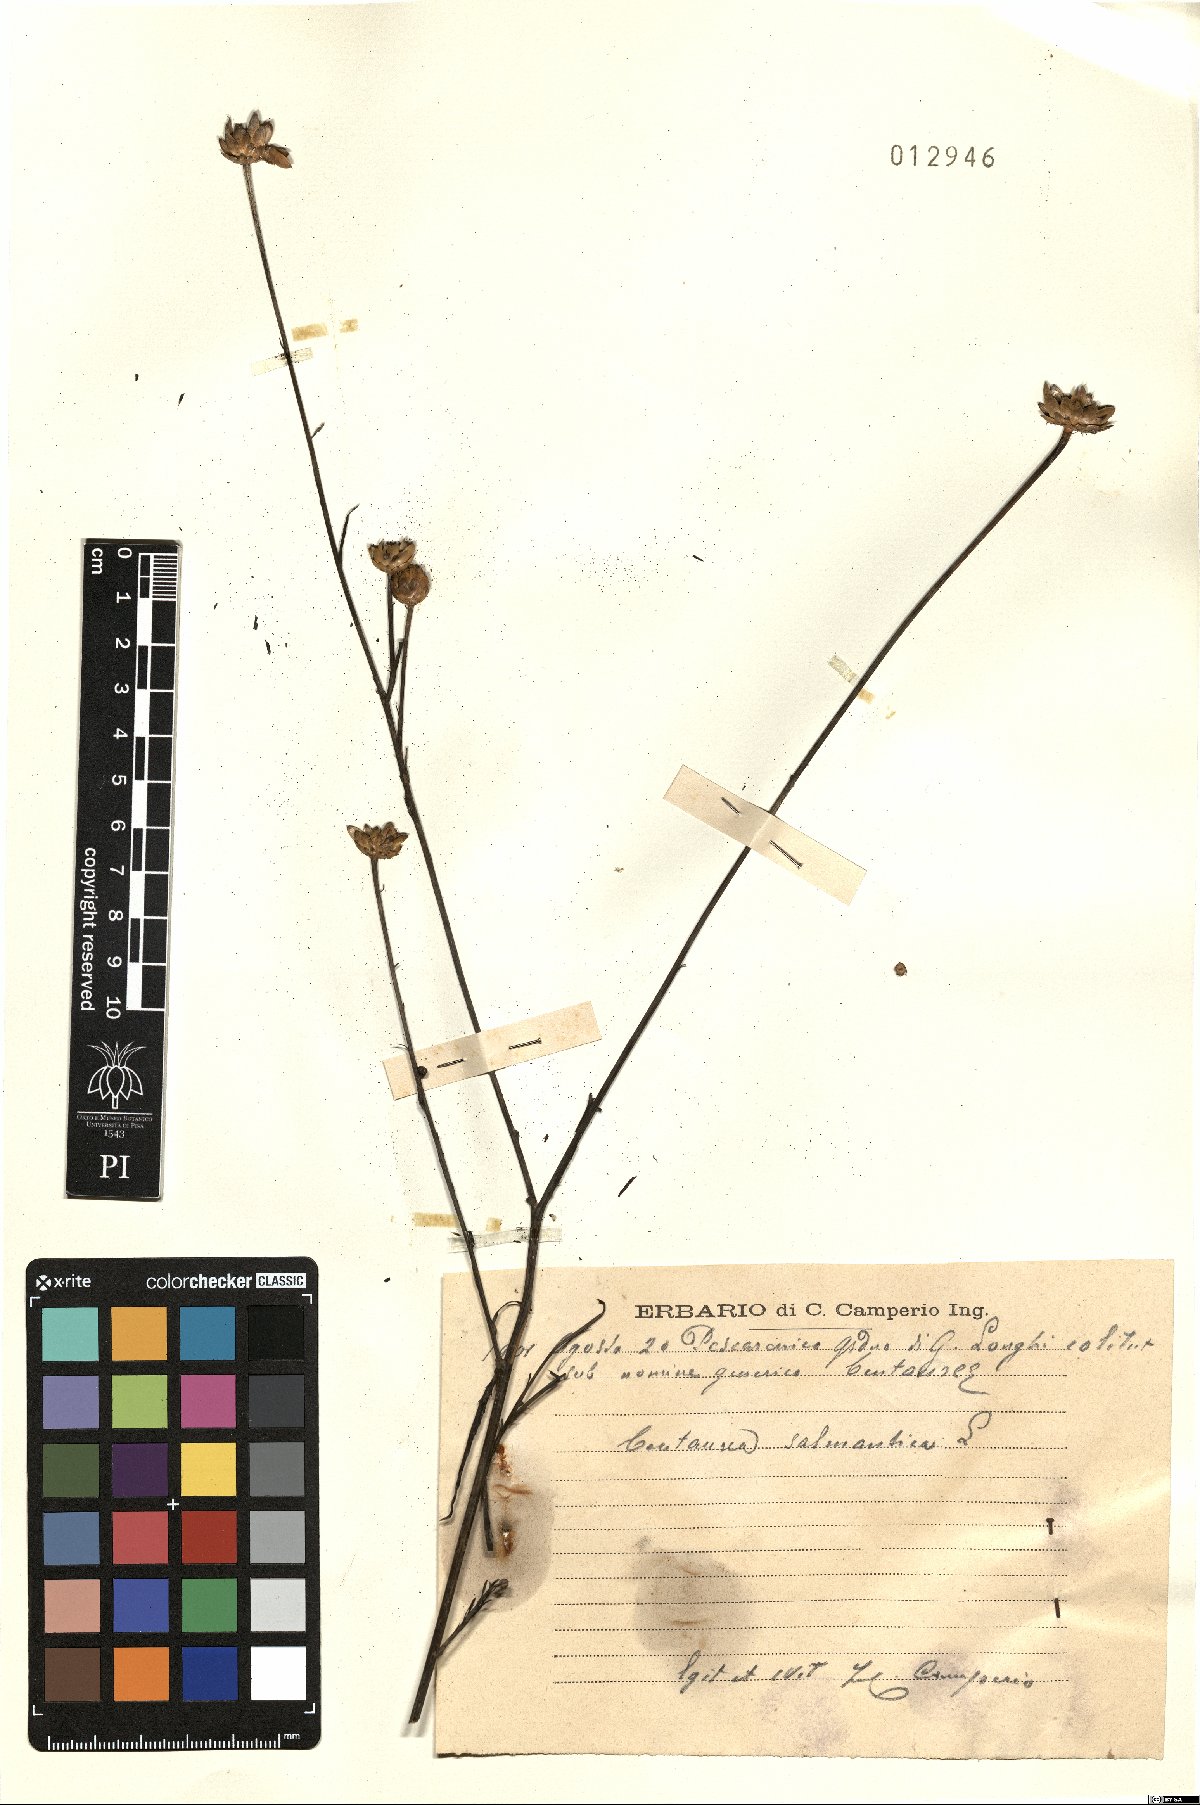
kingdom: Plantae
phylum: Tracheophyta
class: Magnoliopsida
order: Asterales
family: Asteraceae
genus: Mantisalca
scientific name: Mantisalca salmantica
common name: Dagger flower
